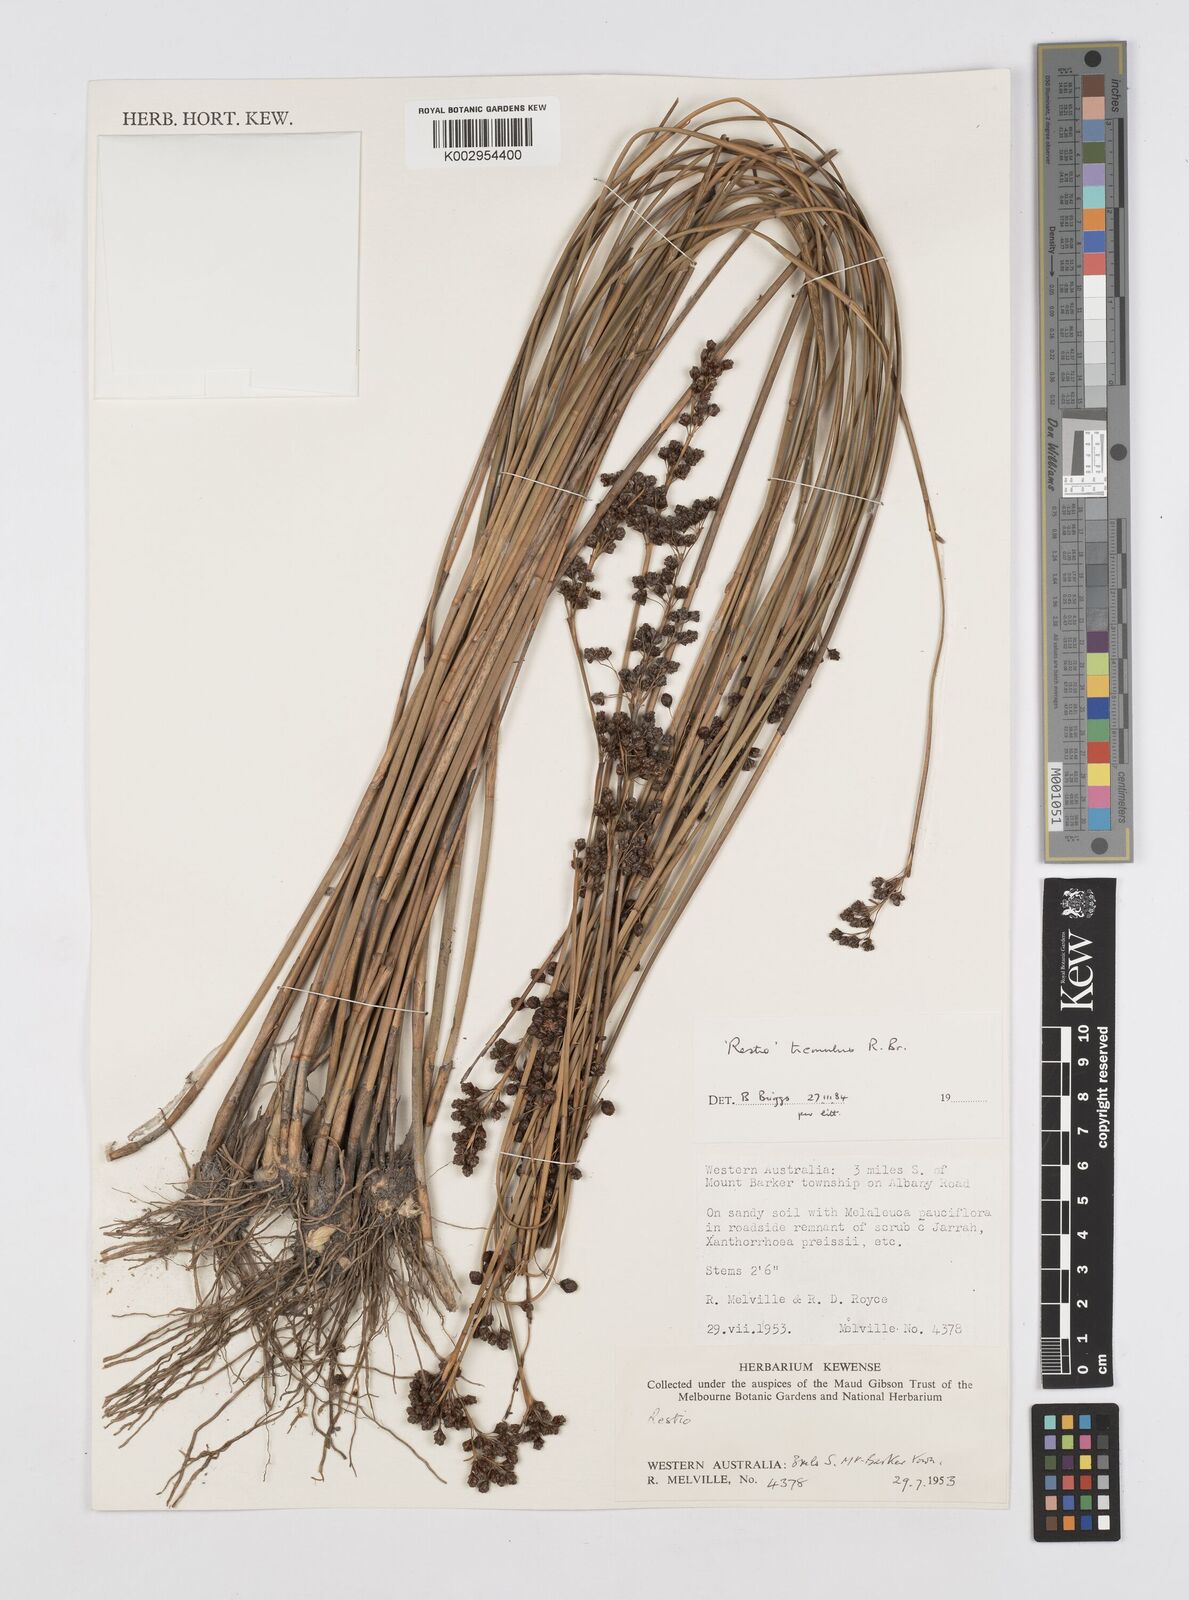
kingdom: Plantae
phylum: Tracheophyta
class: Liliopsida
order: Poales
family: Restionaceae
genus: Tremulina
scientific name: Tremulina tremula
